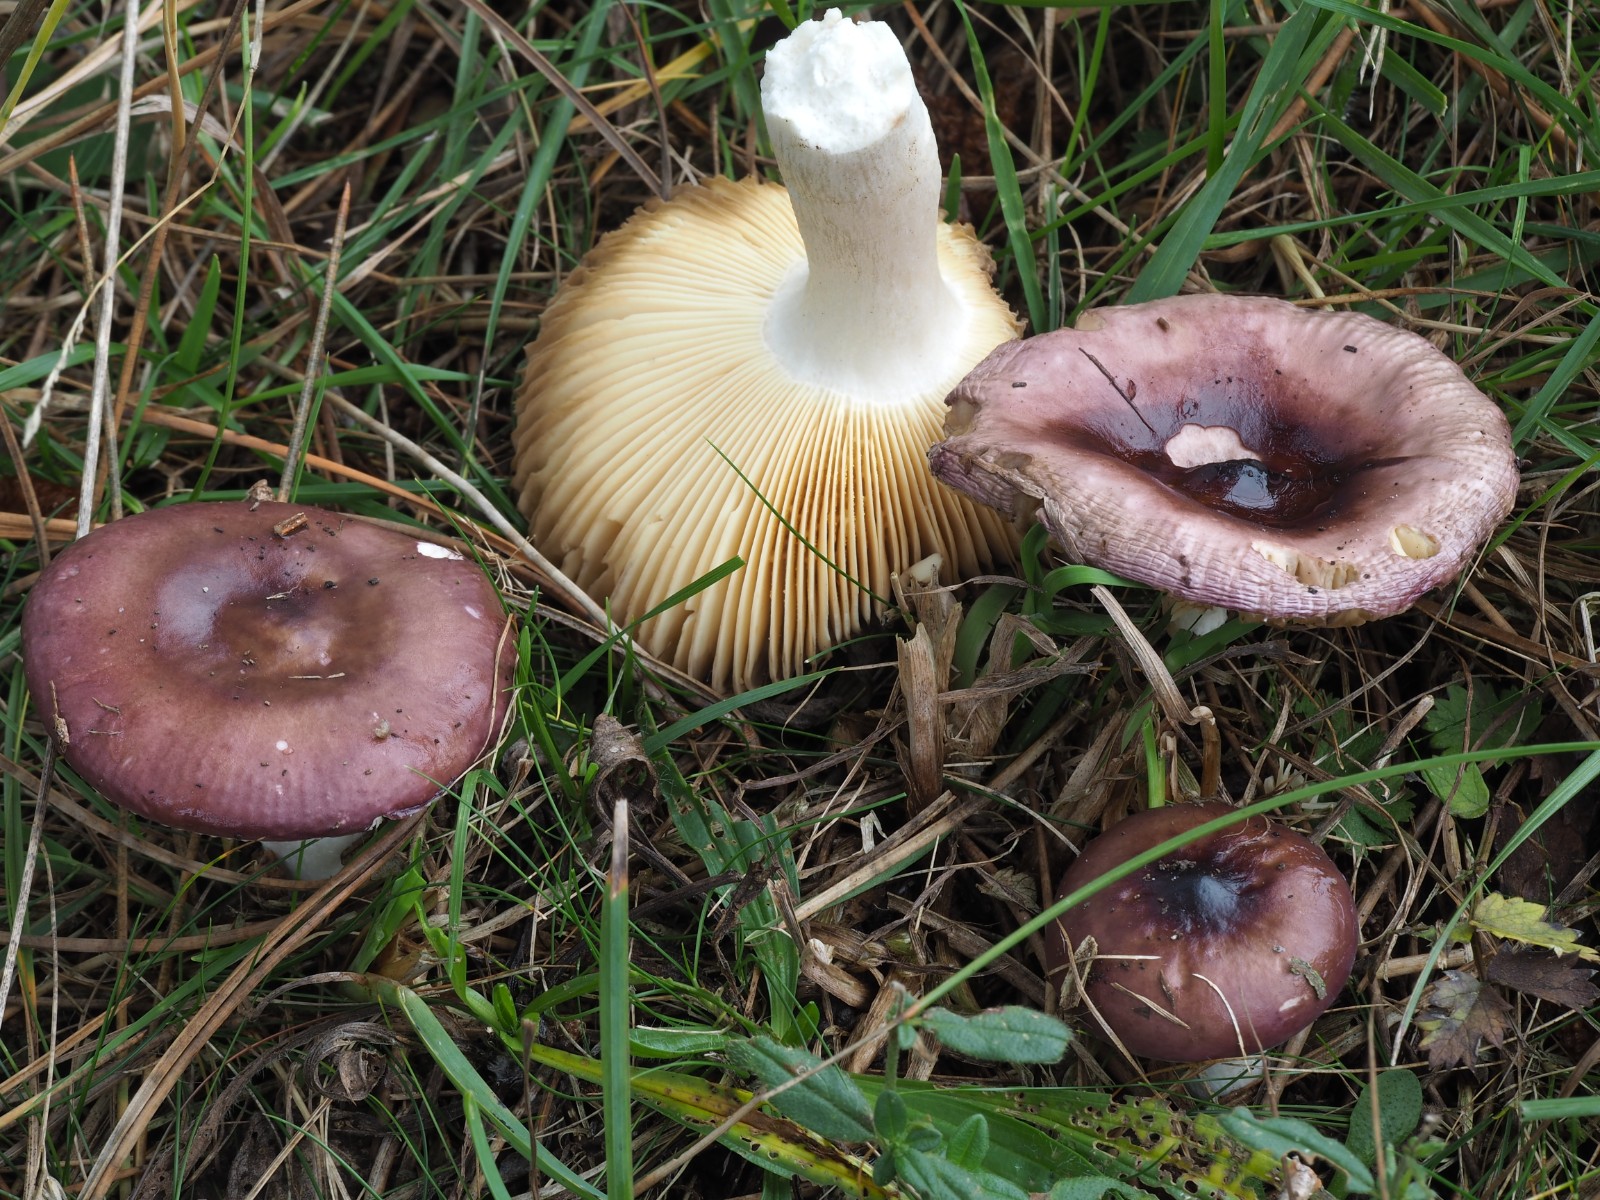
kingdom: Fungi
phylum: Basidiomycota
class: Agaricomycetes
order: Russulales
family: Russulaceae
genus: Russula
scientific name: Russula caerulea
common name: puklet skørhat
